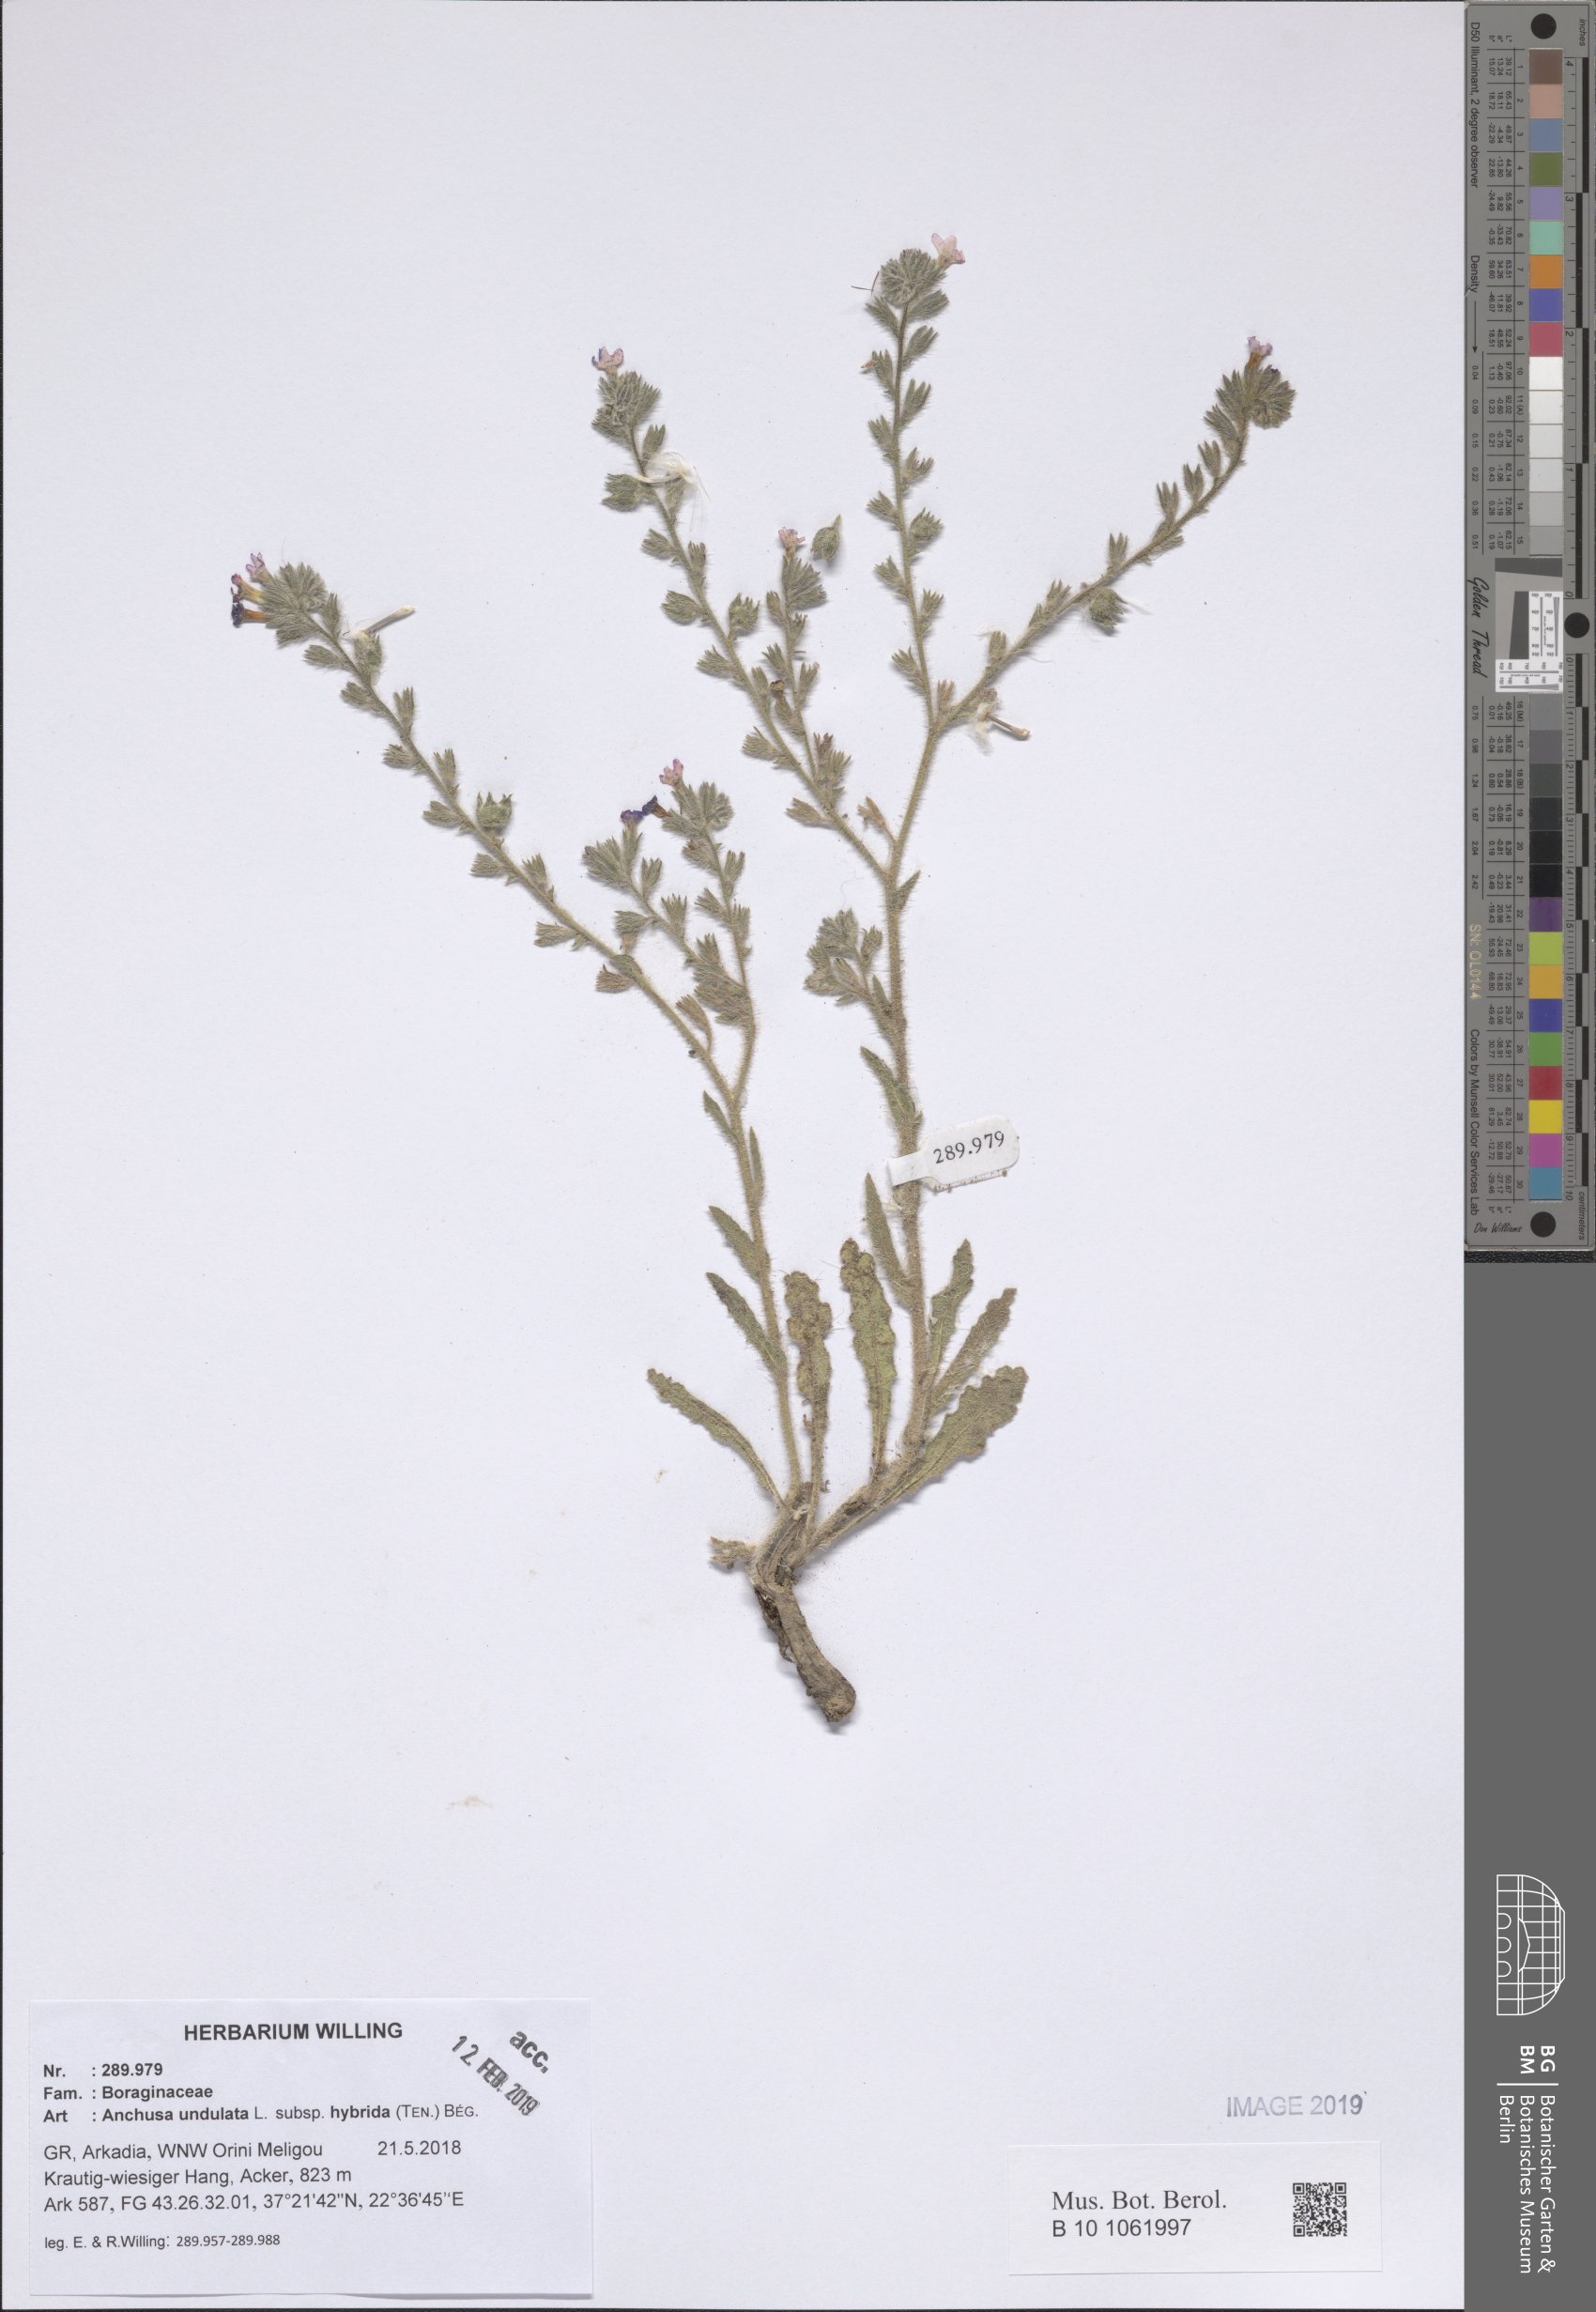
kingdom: Plantae
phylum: Tracheophyta
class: Magnoliopsida
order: Boraginales
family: Boraginaceae
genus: Anchusa
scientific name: Anchusa undulata
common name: Undulate alkanet
